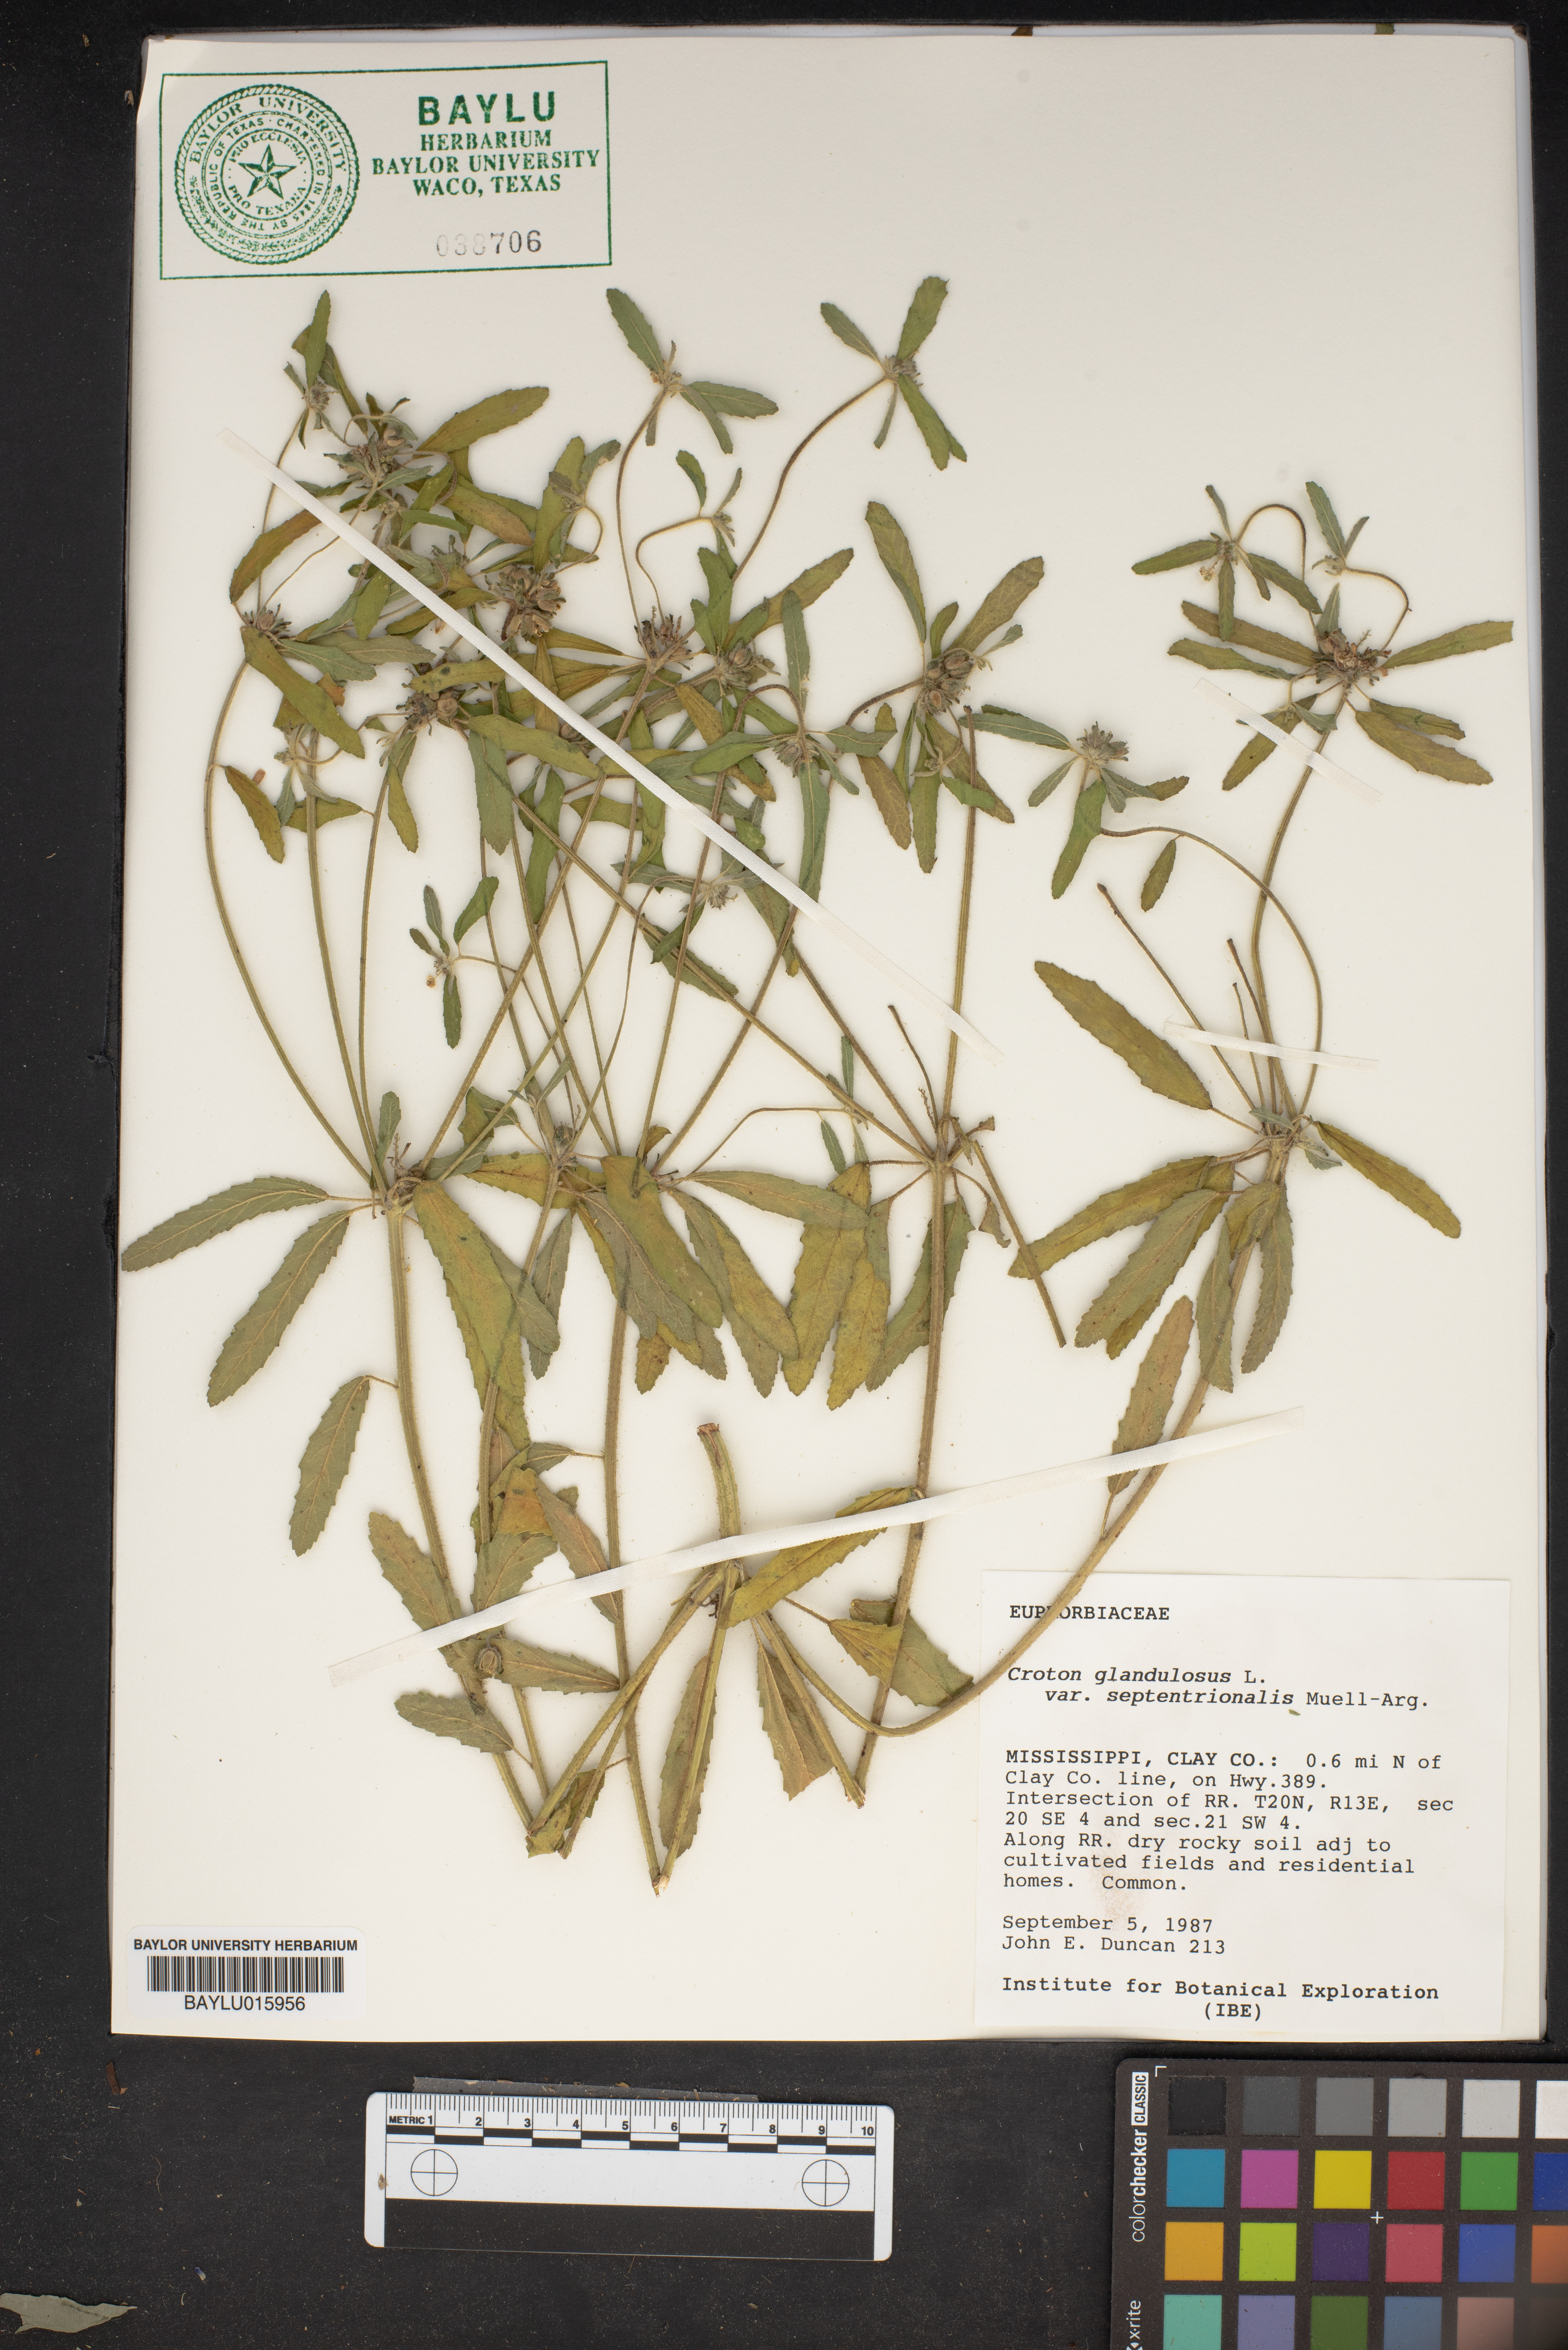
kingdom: Plantae
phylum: Tracheophyta
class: Magnoliopsida
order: Malpighiales
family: Euphorbiaceae
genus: Croton
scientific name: Croton glandulosus
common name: Tropic croton
